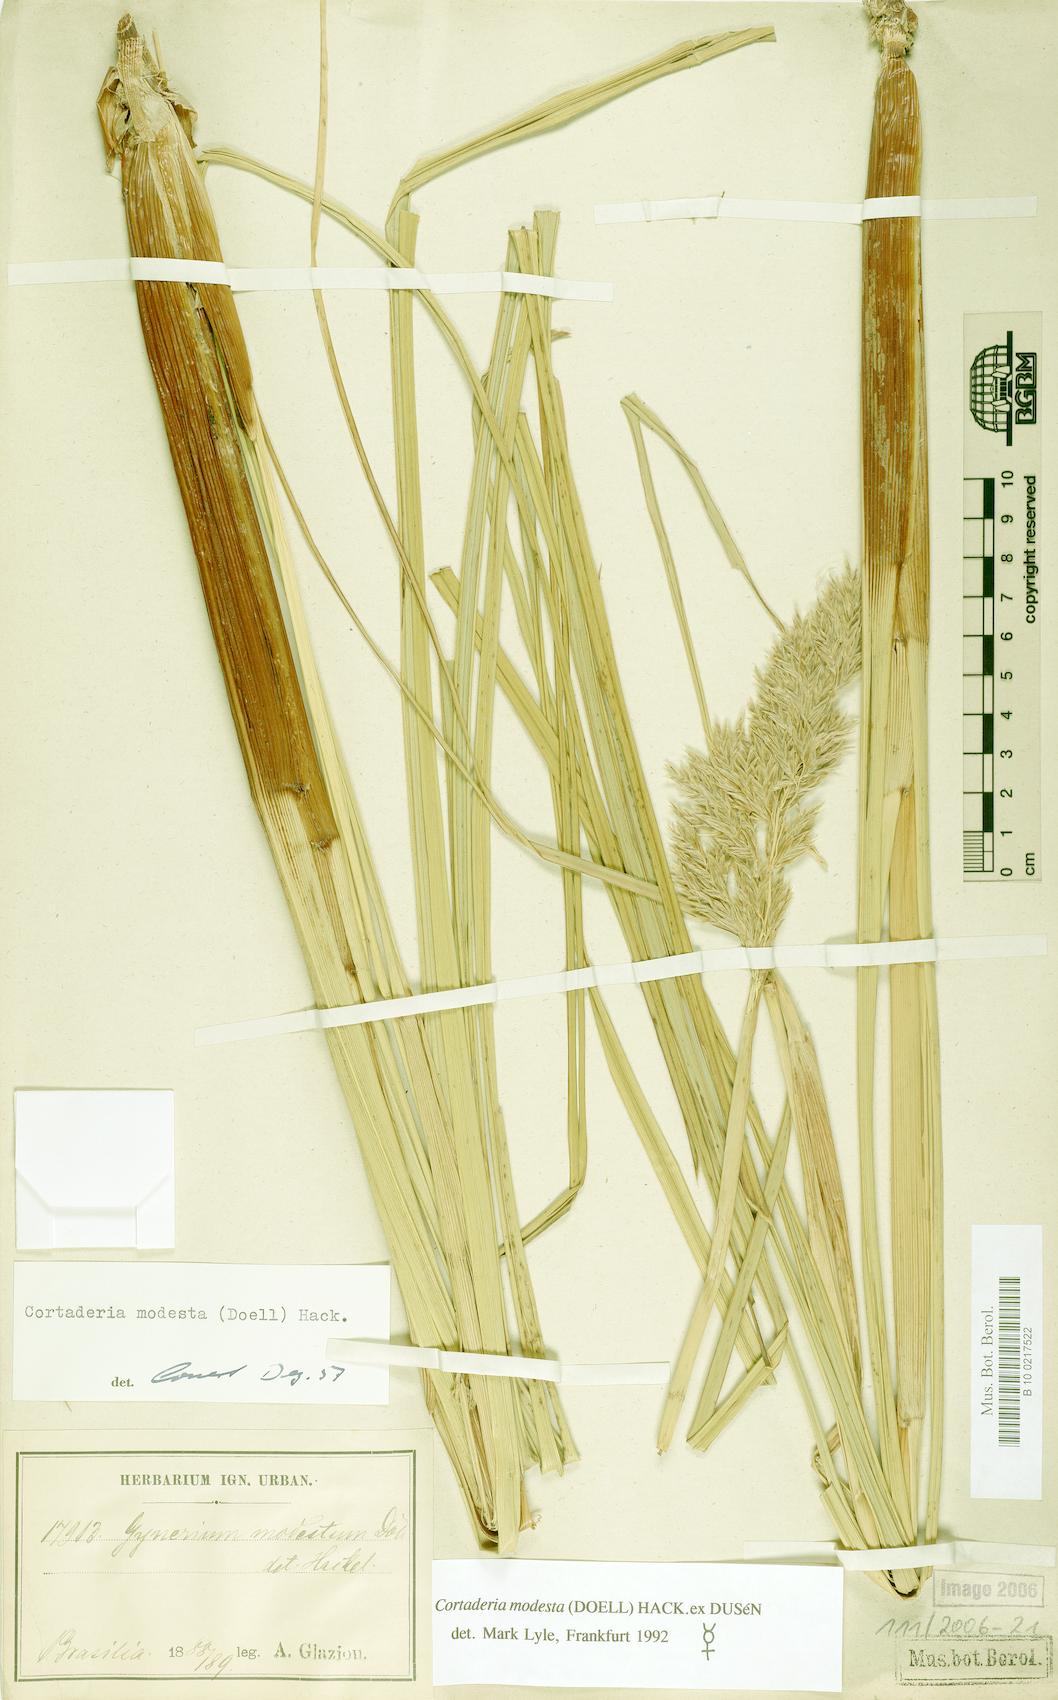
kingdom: Plantae
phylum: Tracheophyta
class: Liliopsida
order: Poales
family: Poaceae
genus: Cortaderia
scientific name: Cortaderia modesta
